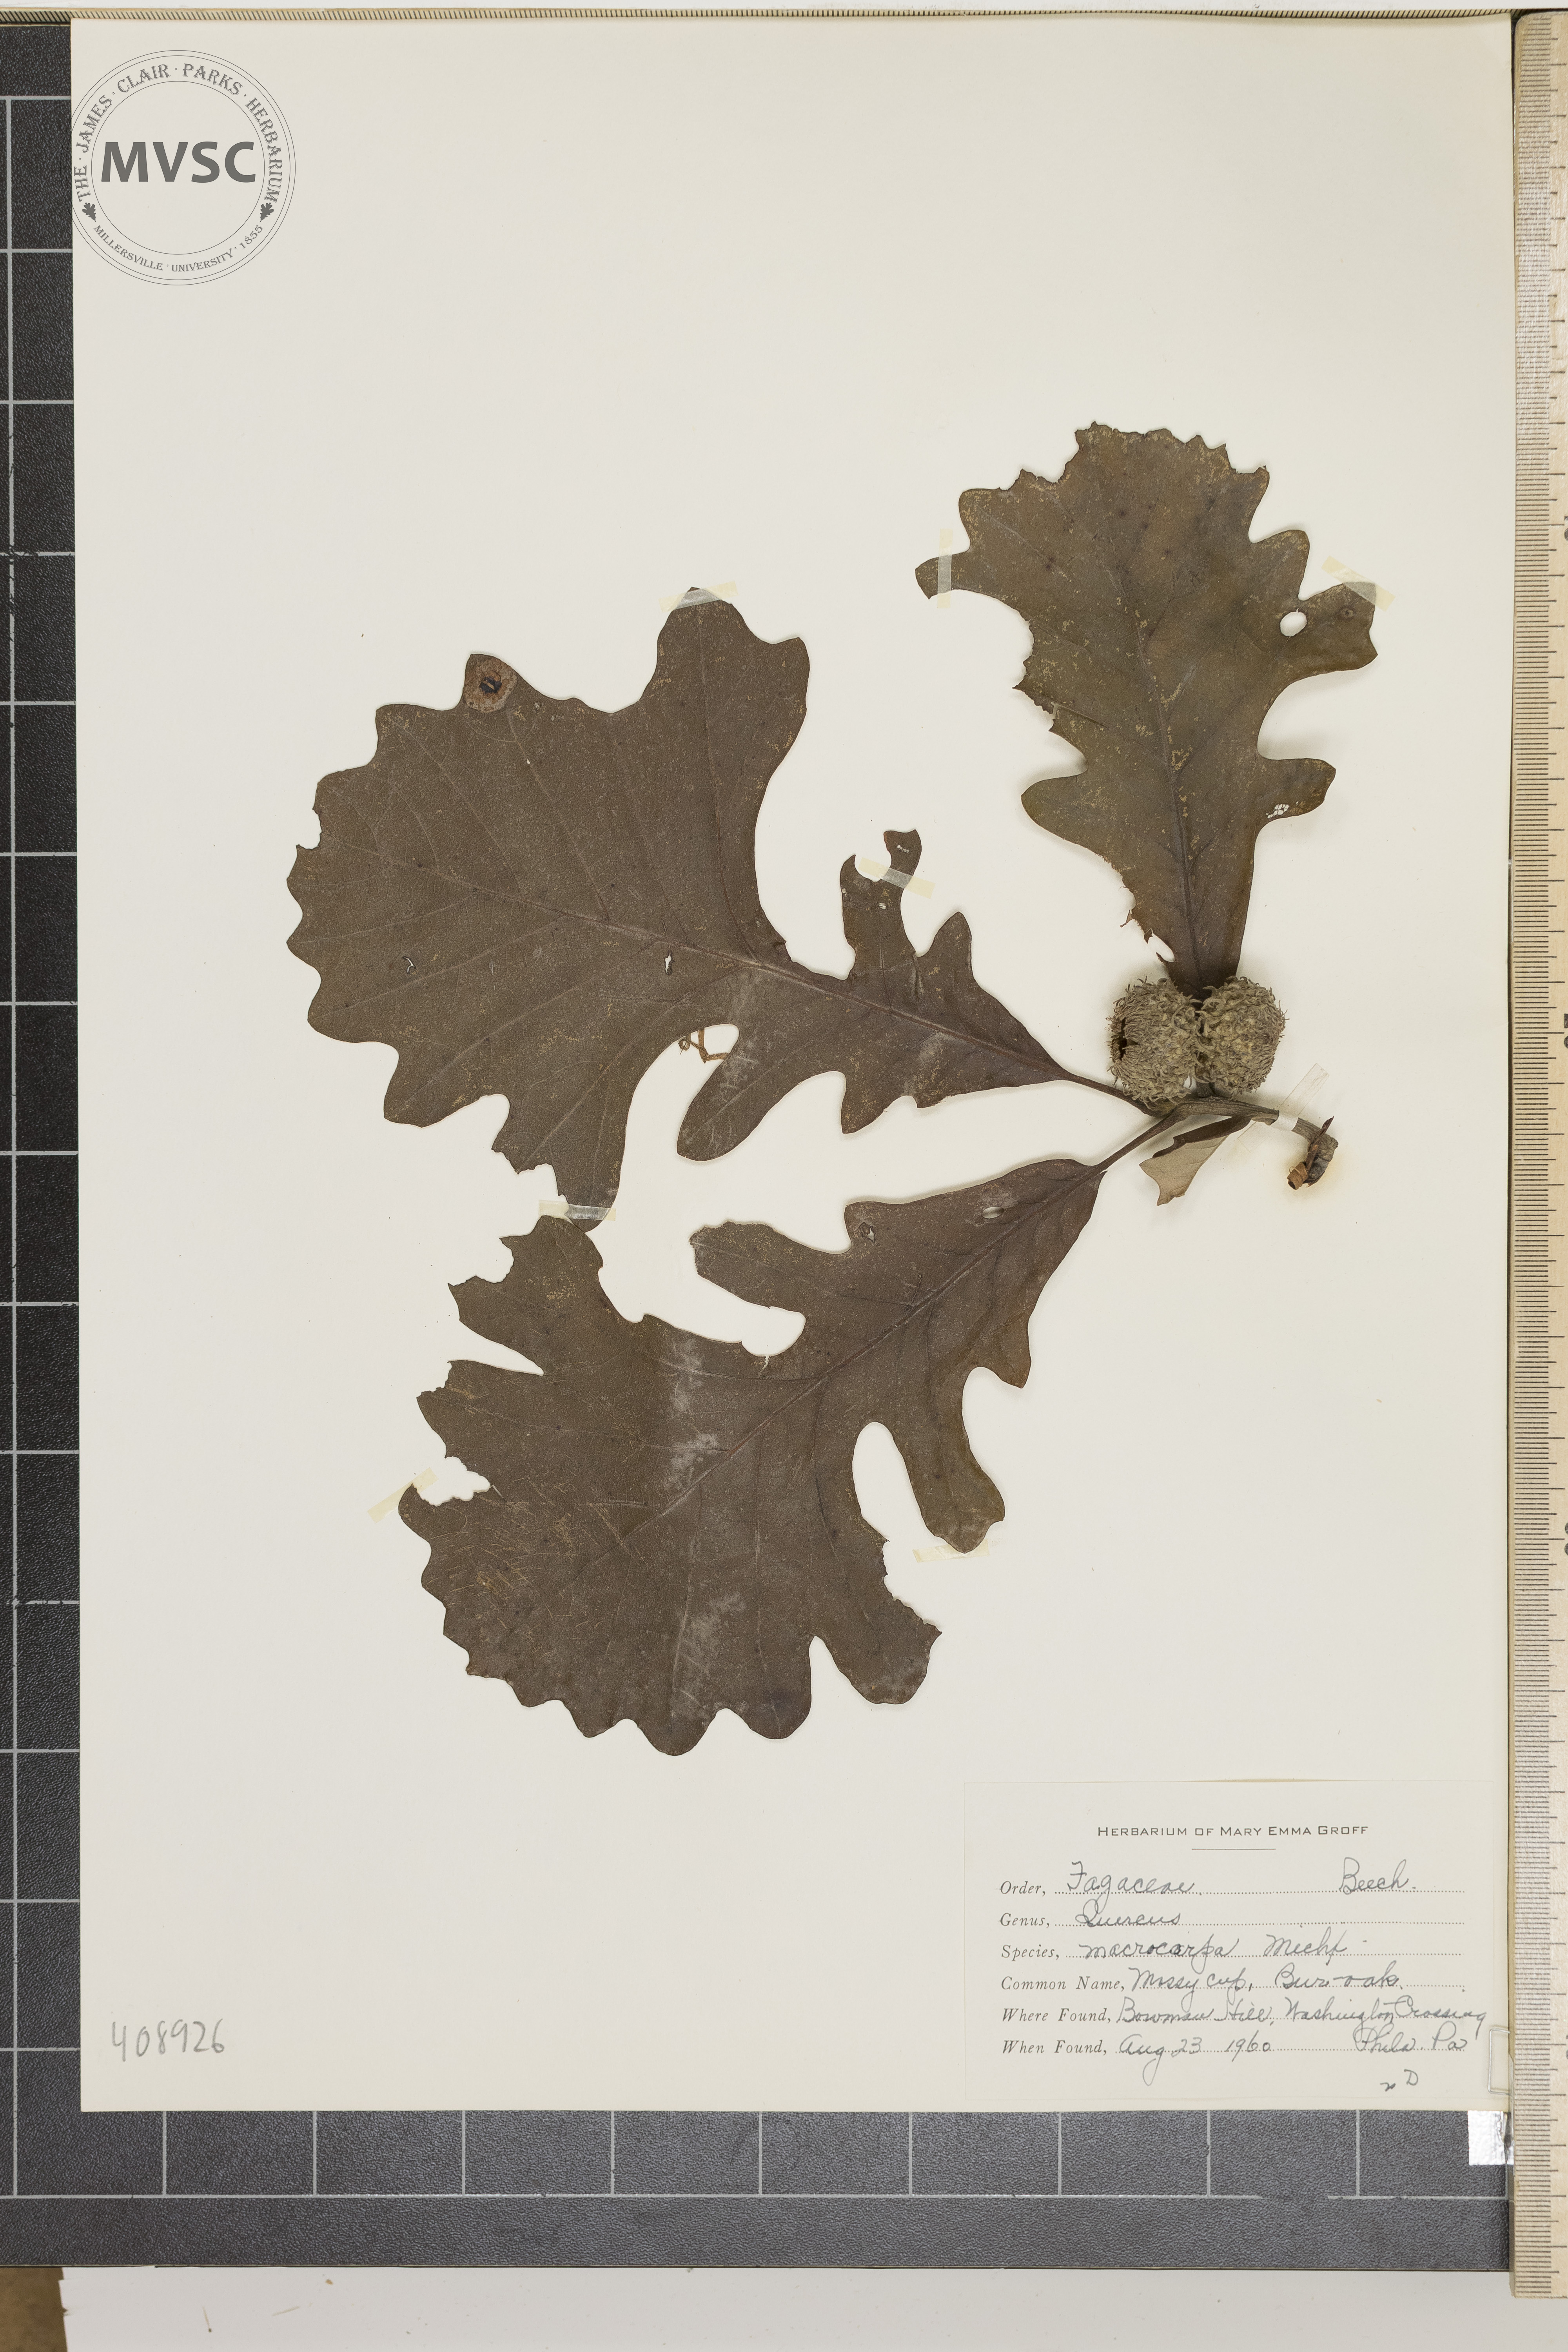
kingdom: Plantae
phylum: Tracheophyta
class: Magnoliopsida
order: Fagales
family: Fagaceae
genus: Quercus
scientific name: Quercus macrocarpa
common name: Bur oak
